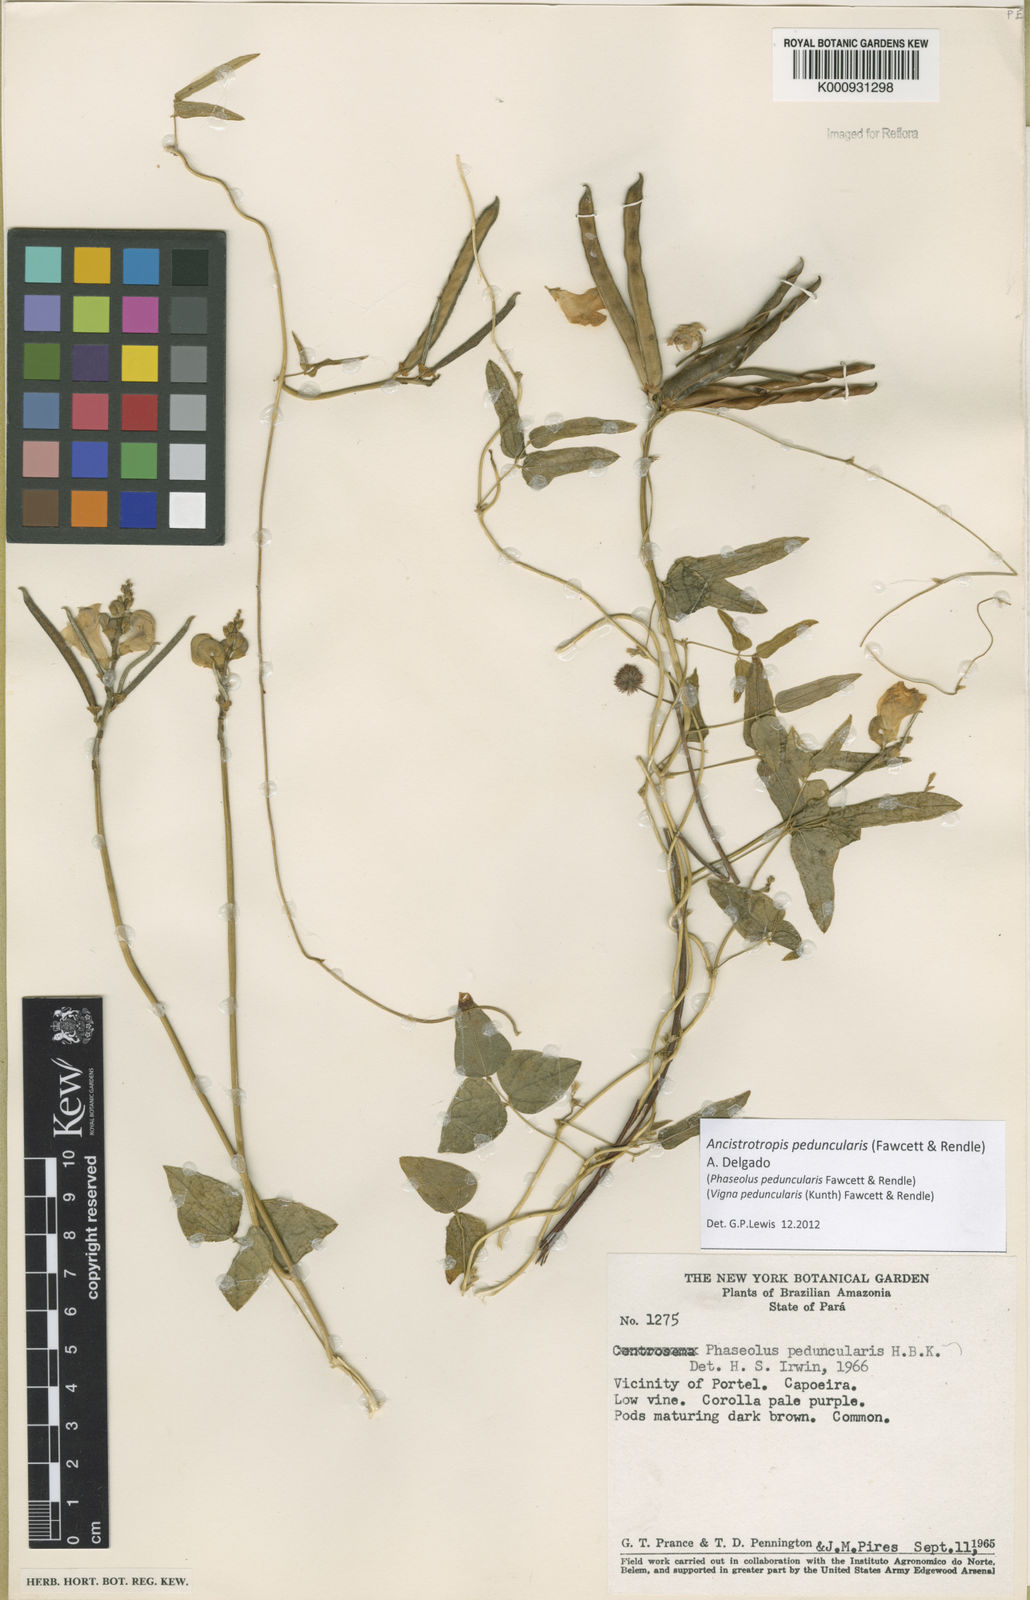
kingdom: Plantae
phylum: Tracheophyta
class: Magnoliopsida
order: Fabales
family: Fabaceae
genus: Ancistrotropis
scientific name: Ancistrotropis peduncularis
